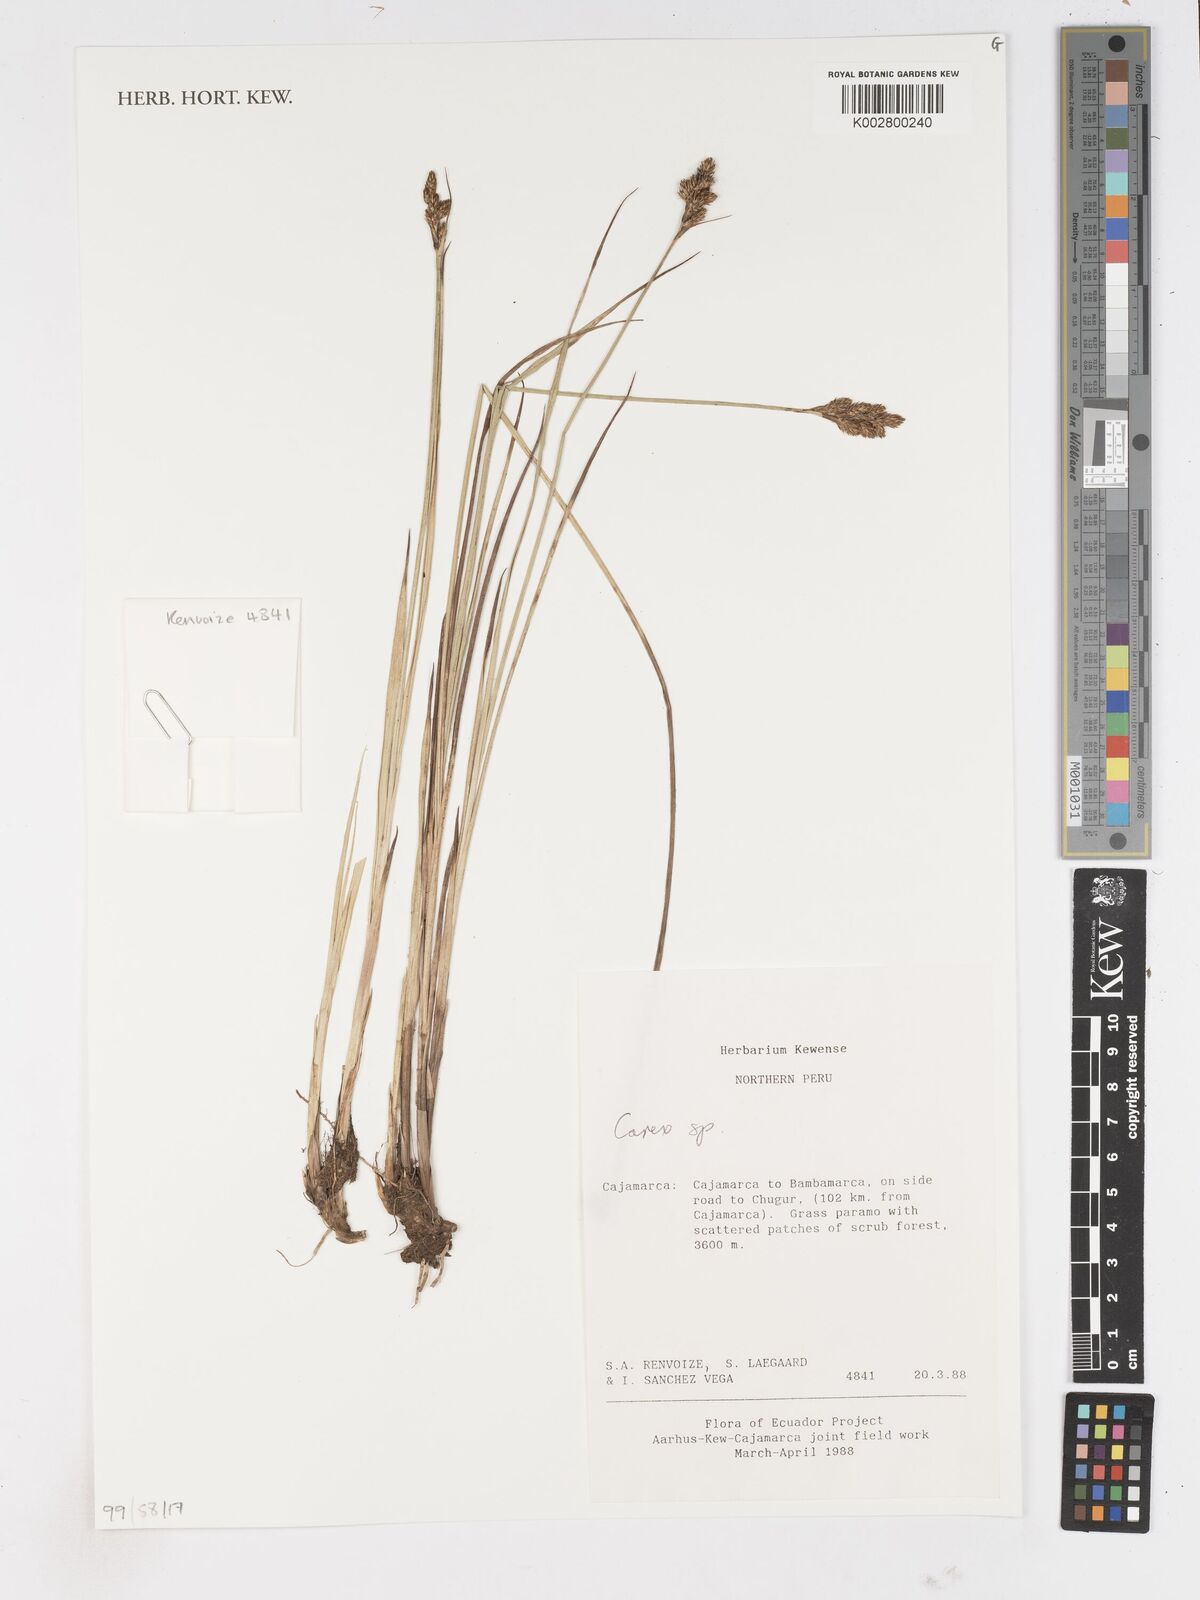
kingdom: Plantae
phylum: Tracheophyta
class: Liliopsida
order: Poales
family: Cyperaceae
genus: Carex
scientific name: Carex
